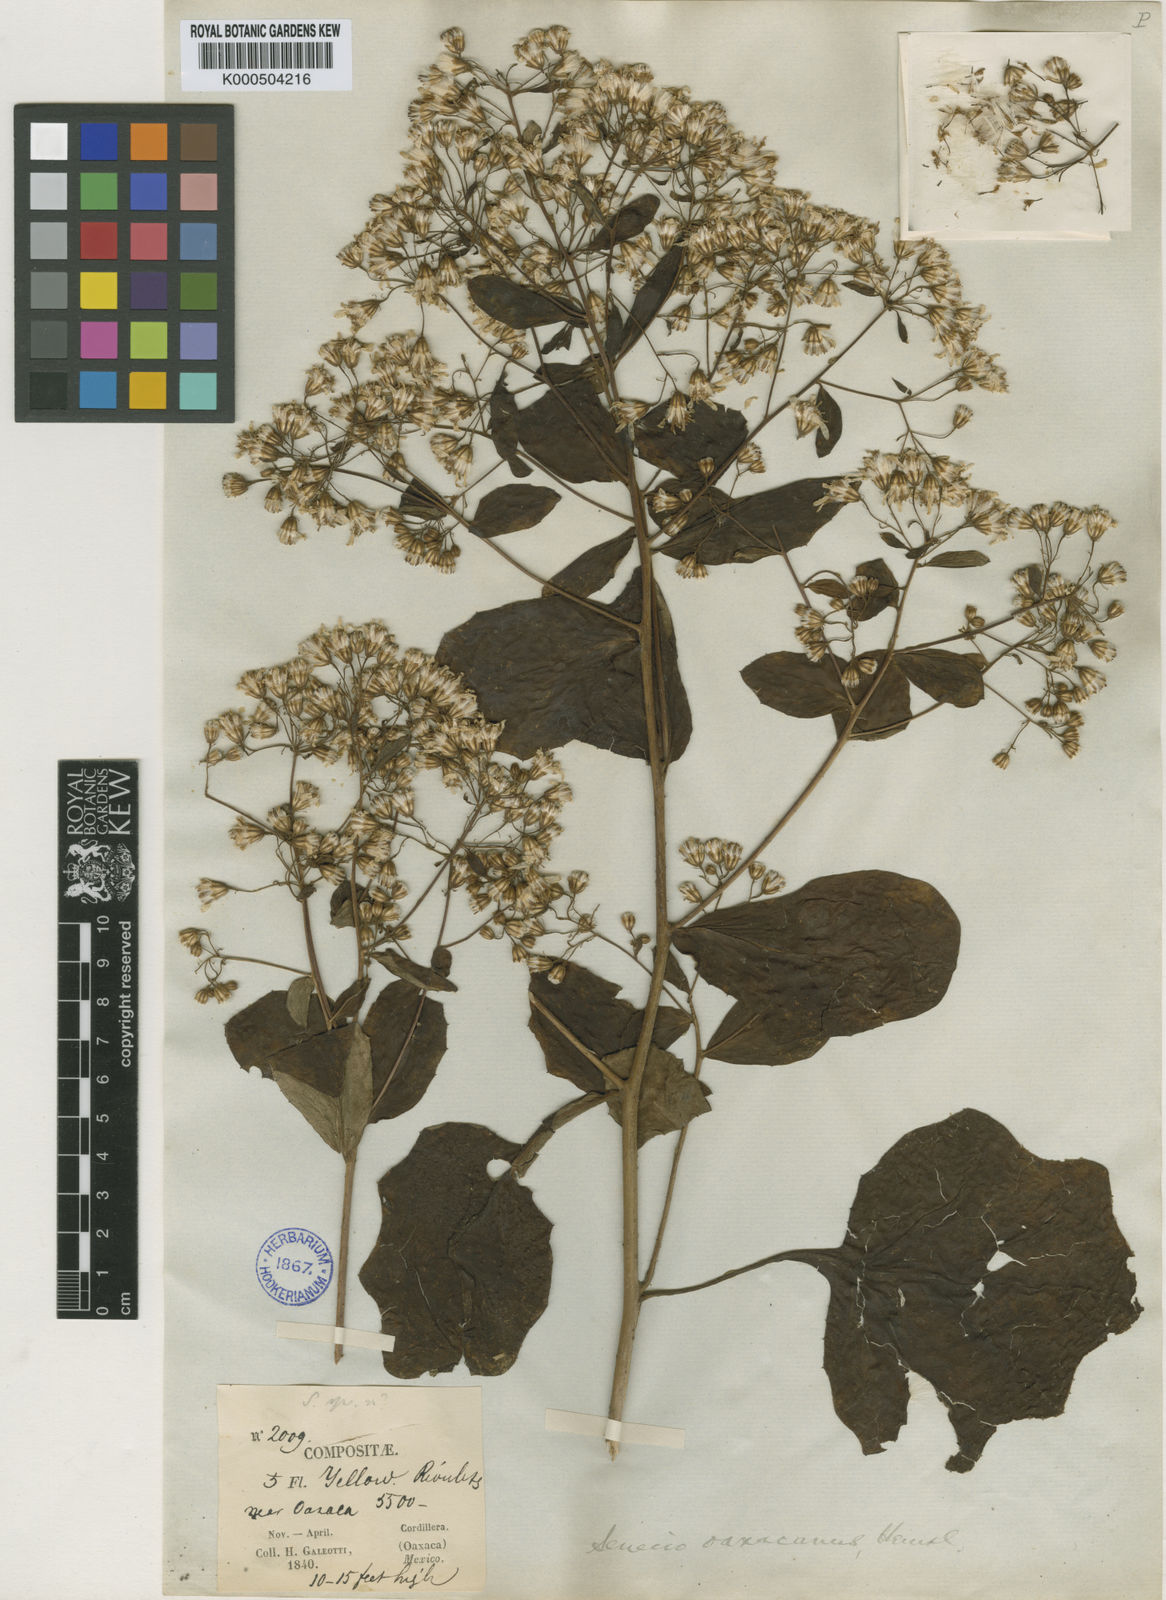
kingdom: Plantae
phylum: Tracheophyta
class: Magnoliopsida
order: Asterales
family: Asteraceae
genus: Roldana
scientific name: Roldana oaxacana
